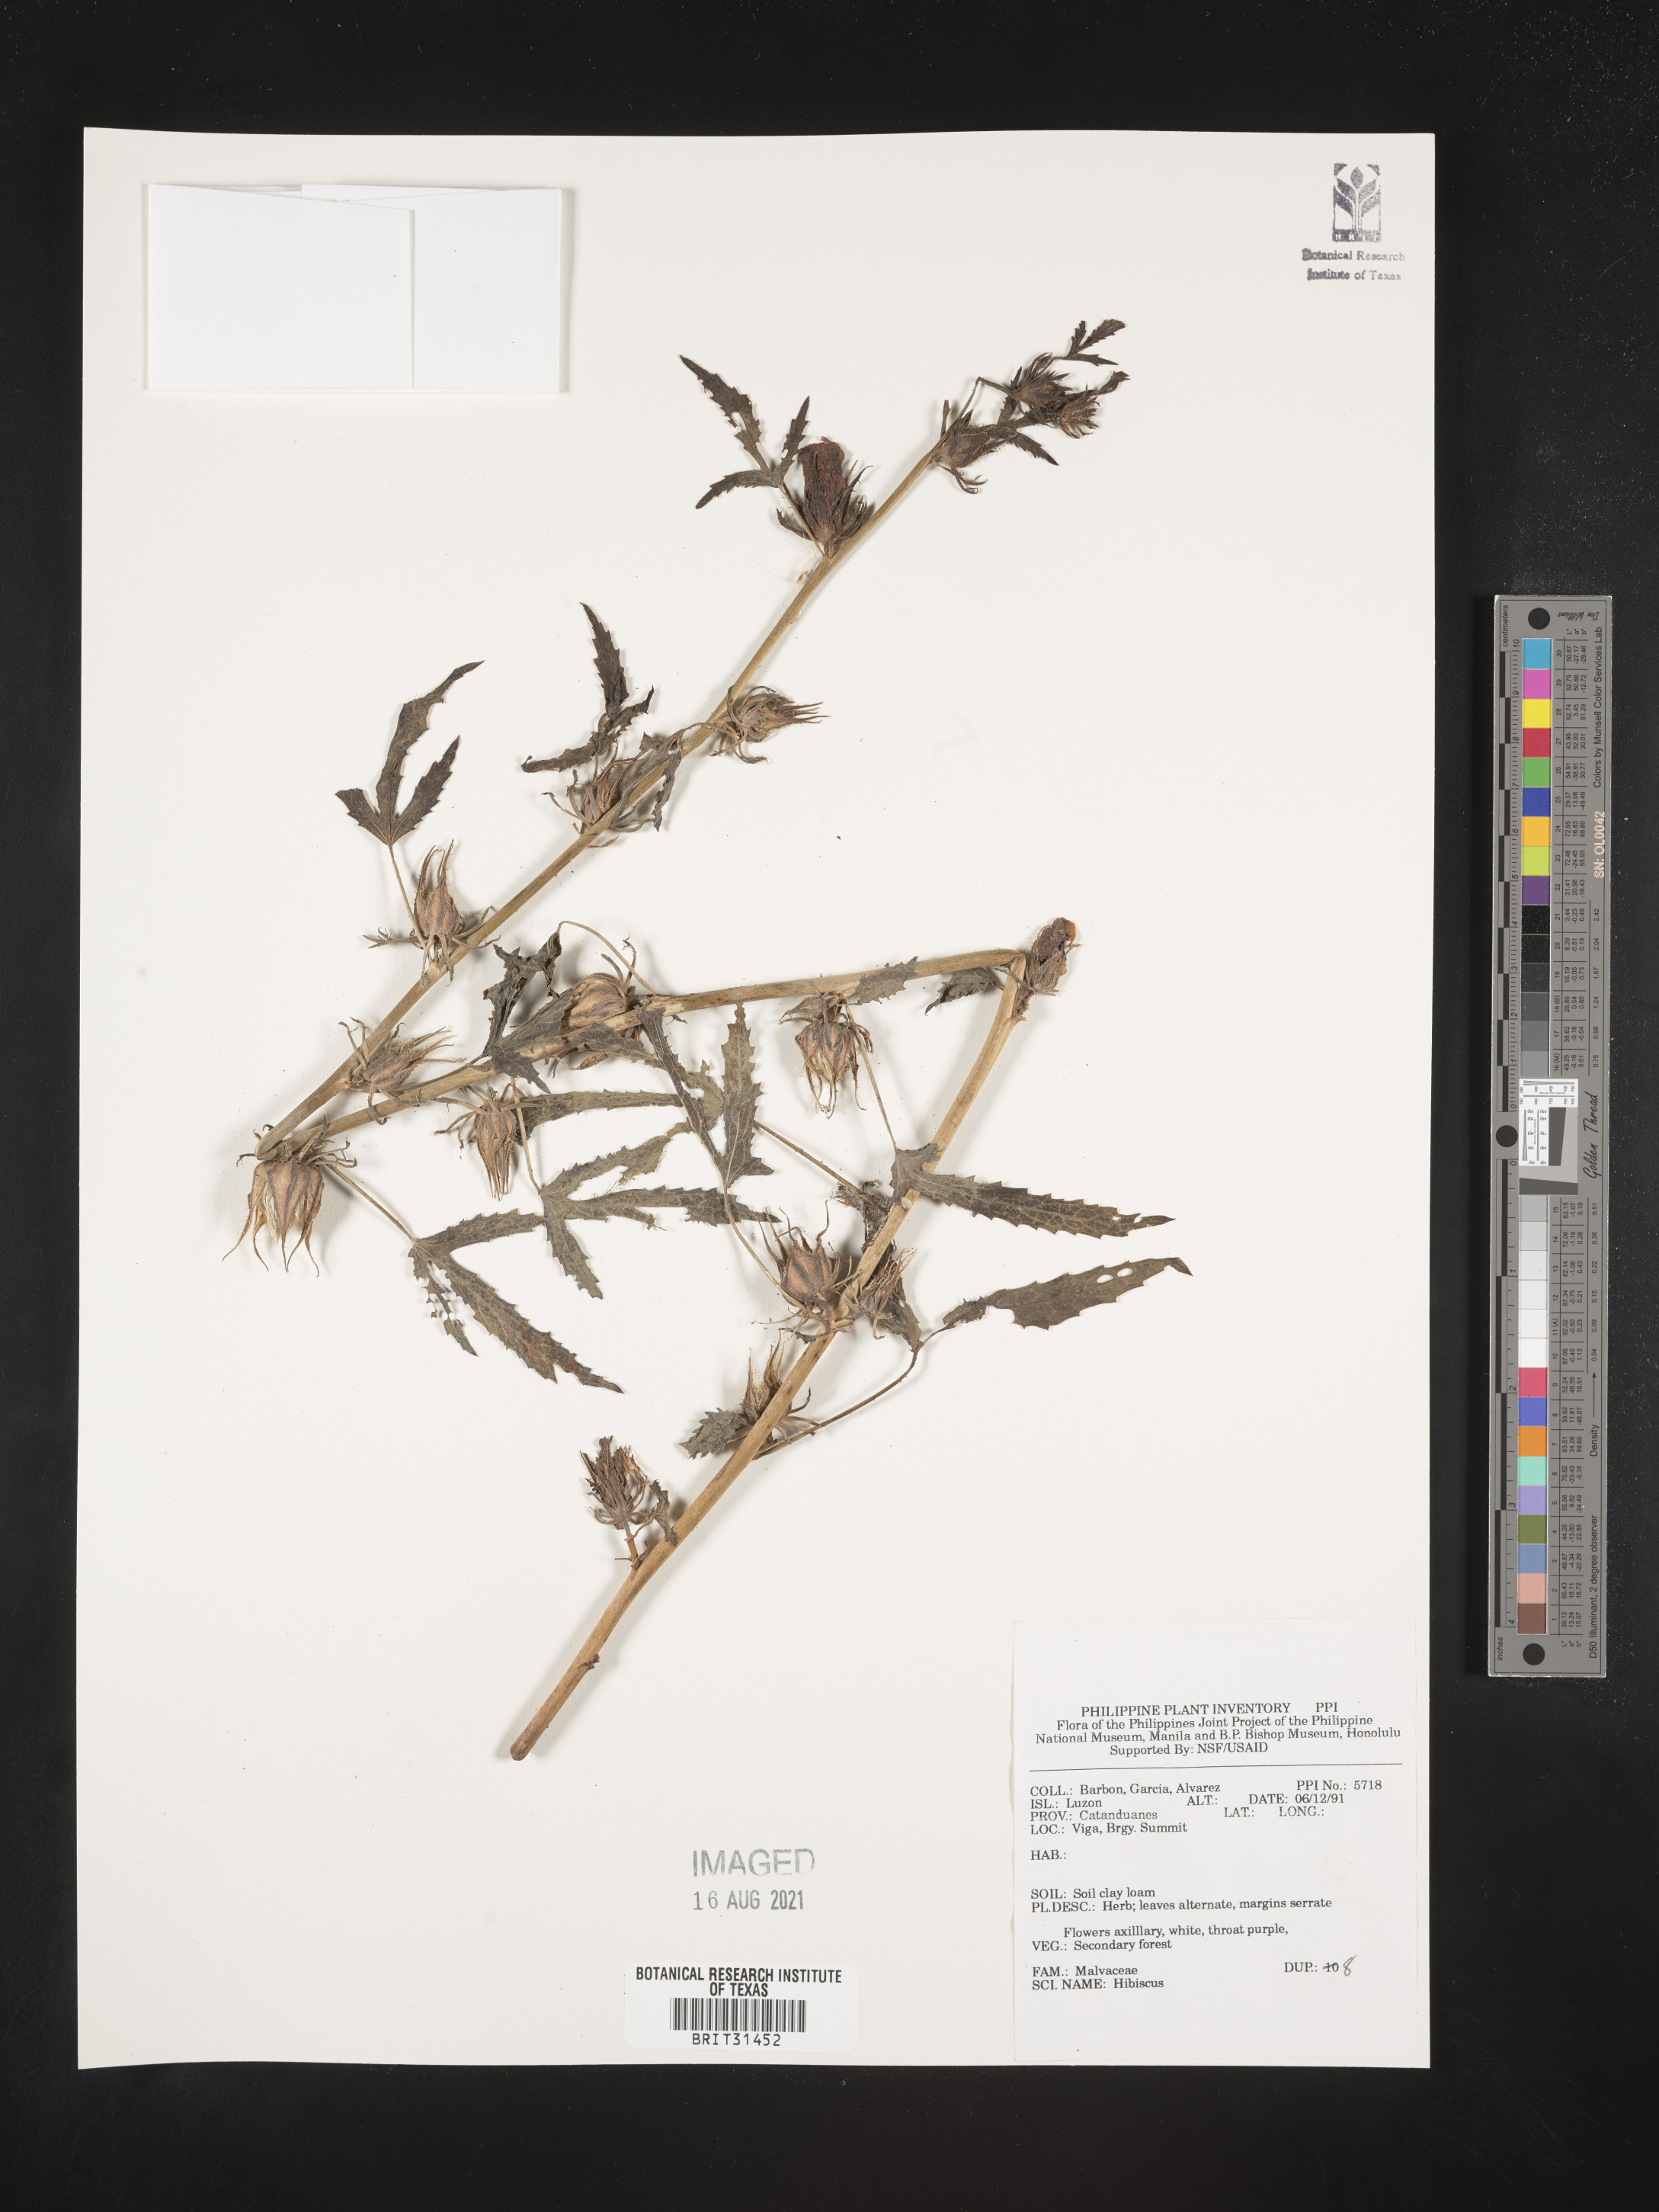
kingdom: Plantae
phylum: Tracheophyta
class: Magnoliopsida
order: Malvales
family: Malvaceae
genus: Hibiscus
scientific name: Hibiscus
